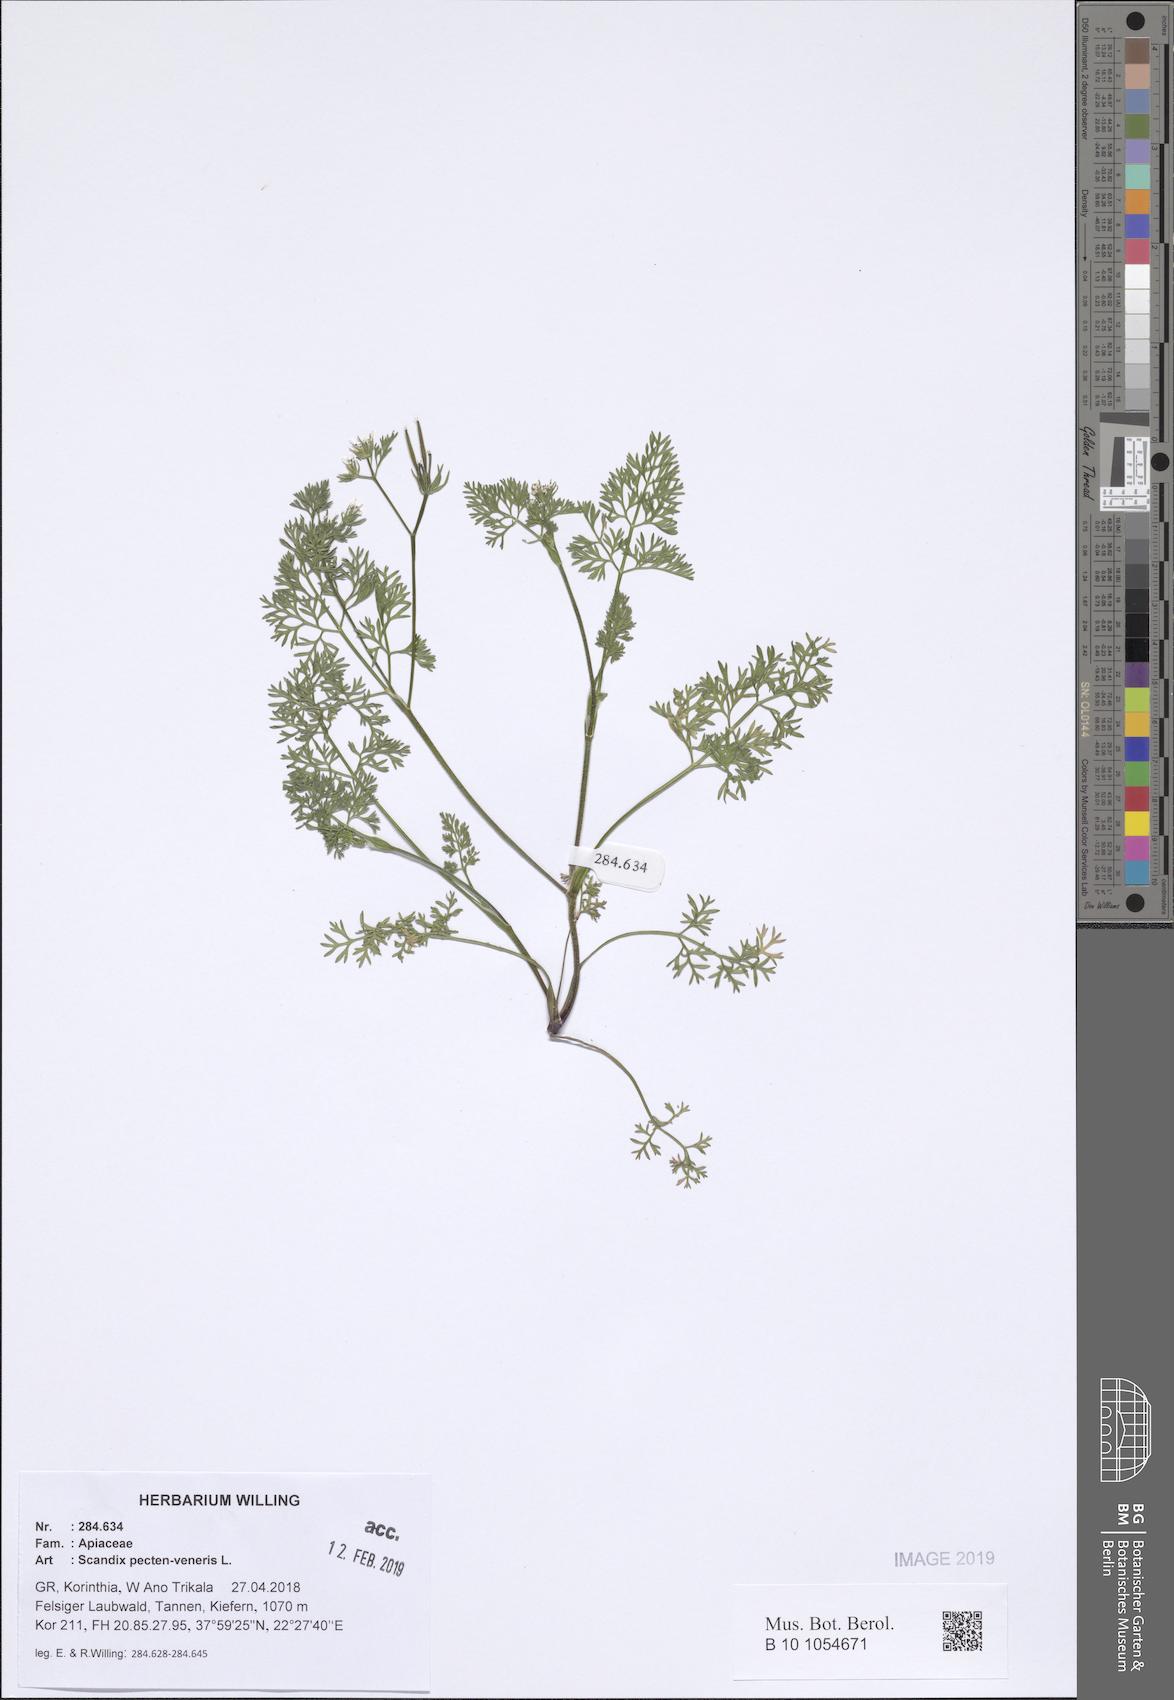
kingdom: Plantae
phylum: Tracheophyta
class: Magnoliopsida
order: Apiales
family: Apiaceae
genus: Scandix
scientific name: Scandix pecten-veneris
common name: Shepherd's-needle
